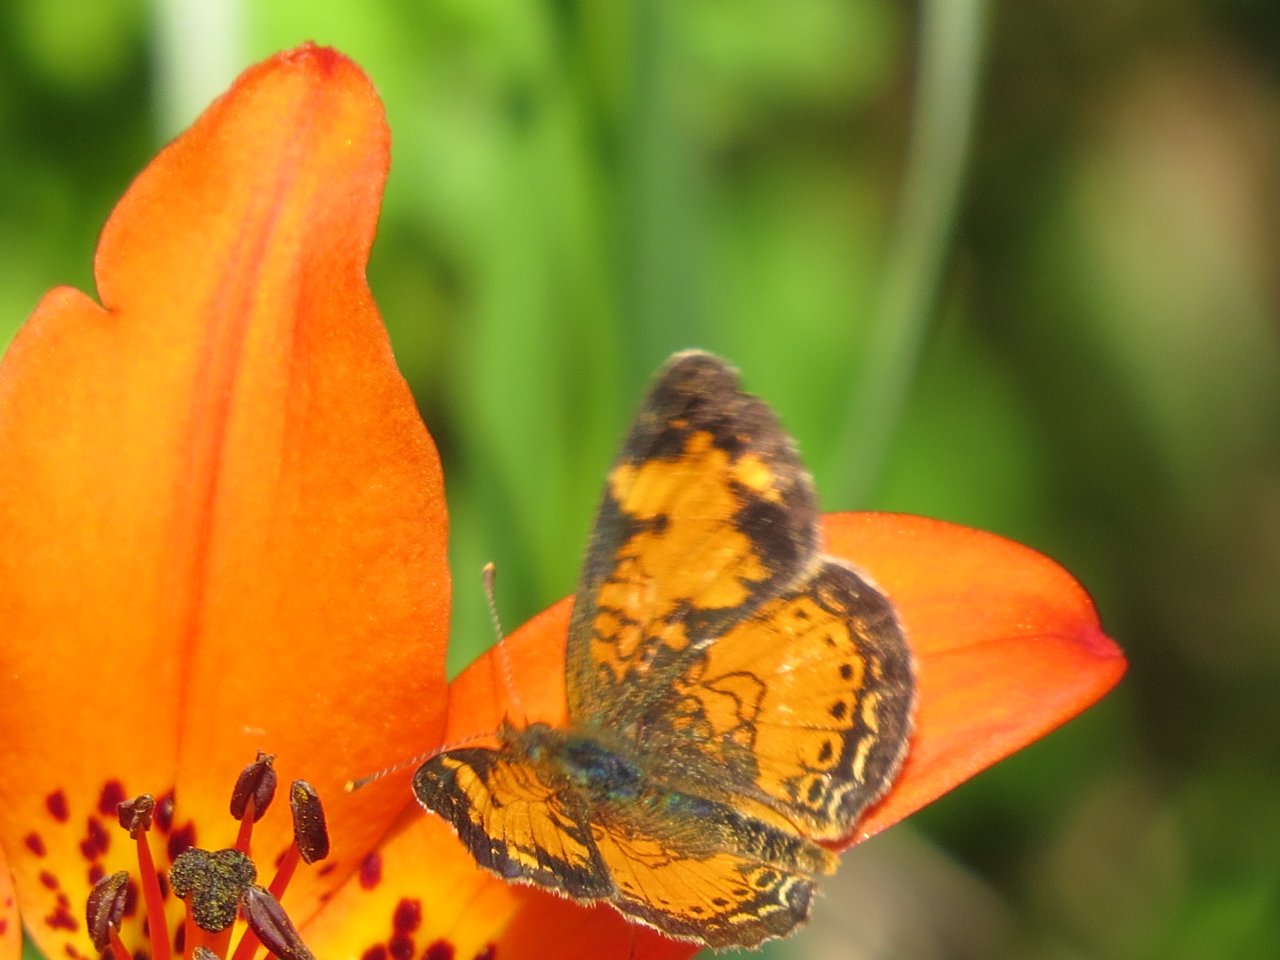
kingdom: Animalia
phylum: Arthropoda
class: Insecta
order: Lepidoptera
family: Nymphalidae
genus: Phyciodes
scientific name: Phyciodes tharos
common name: Northern Crescent
